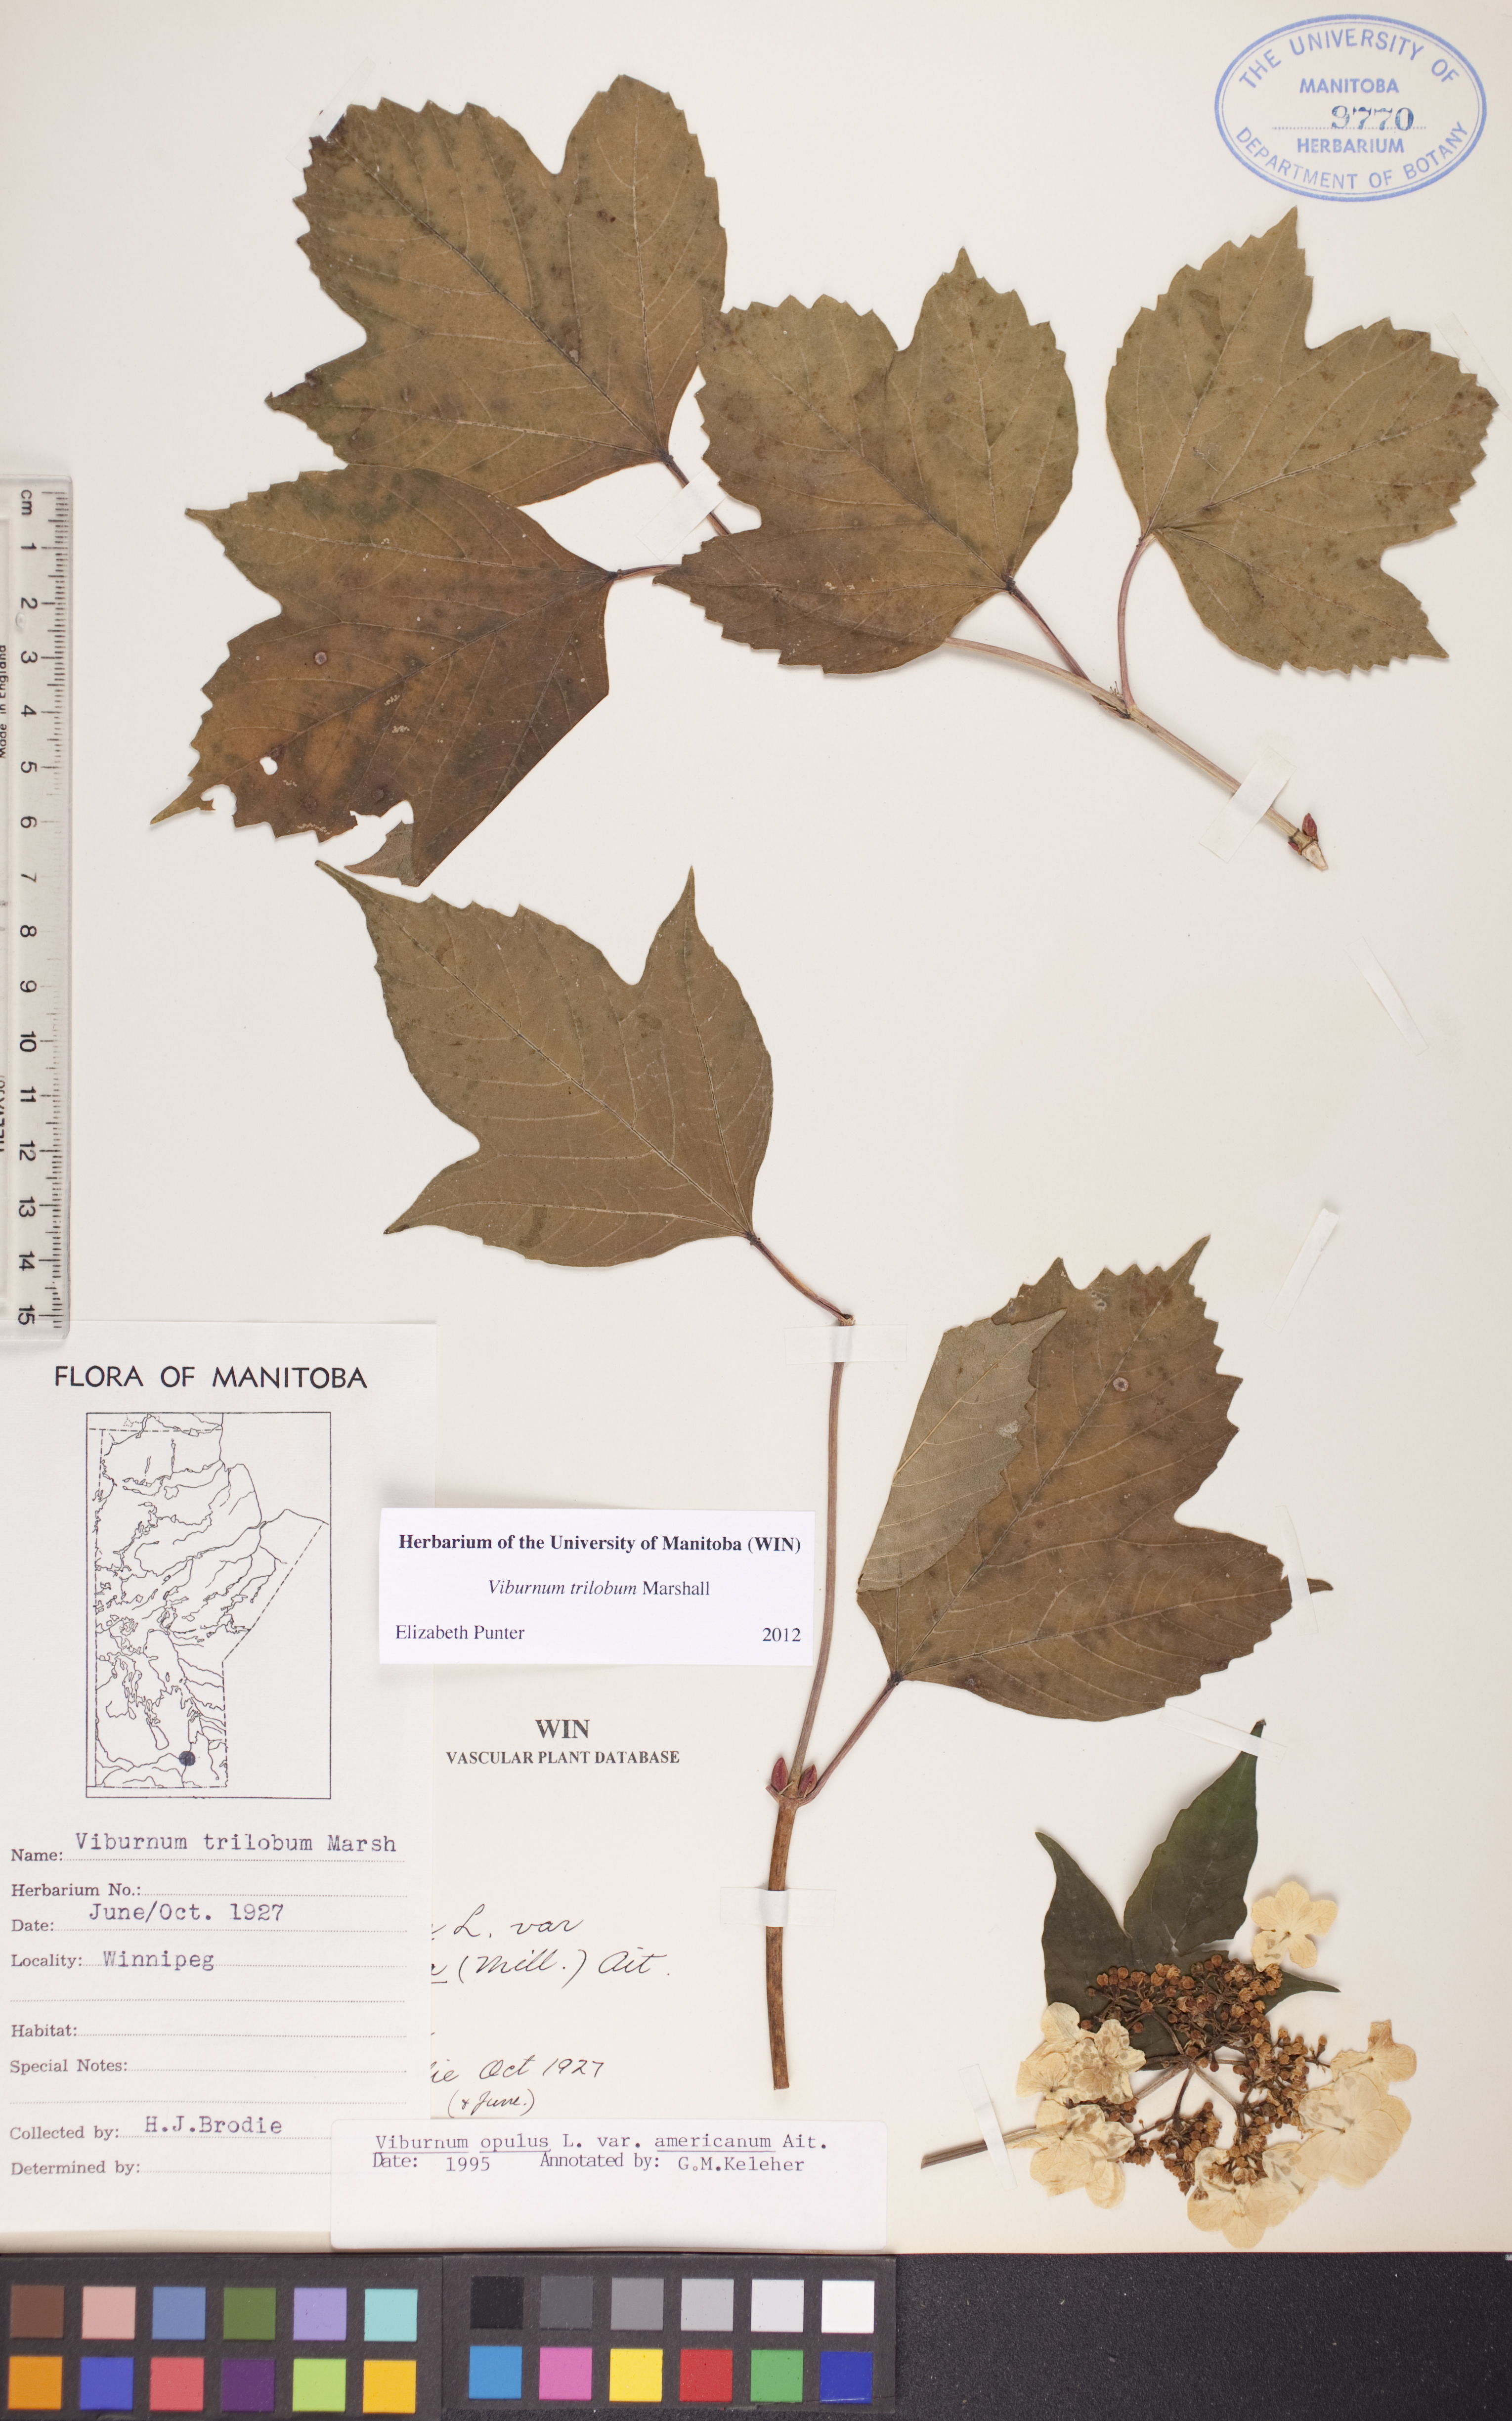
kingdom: Plantae
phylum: Tracheophyta
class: Magnoliopsida
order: Dipsacales
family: Viburnaceae
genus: Viburnum
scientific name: Viburnum trilobum
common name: American cranberrybush
